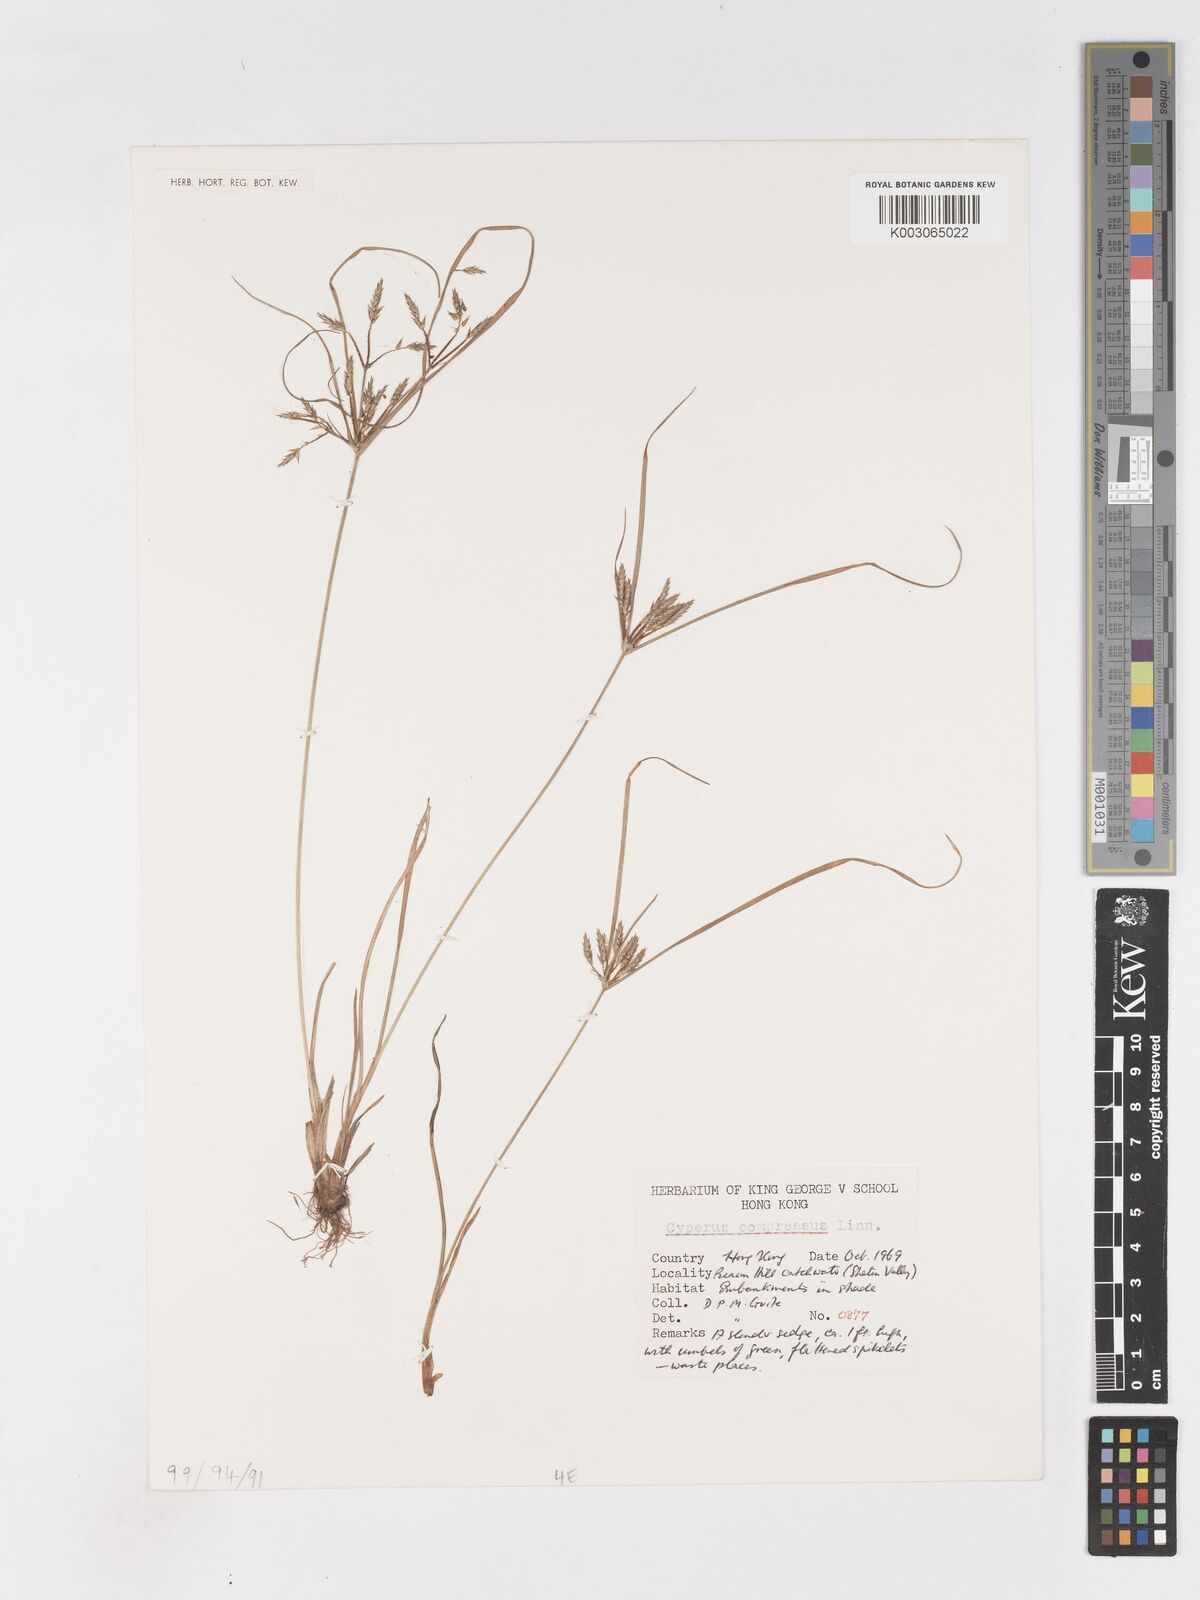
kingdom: Plantae
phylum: Tracheophyta
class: Liliopsida
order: Poales
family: Cyperaceae
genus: Cyperus
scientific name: Cyperus compressus
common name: Poorland flatsedge
